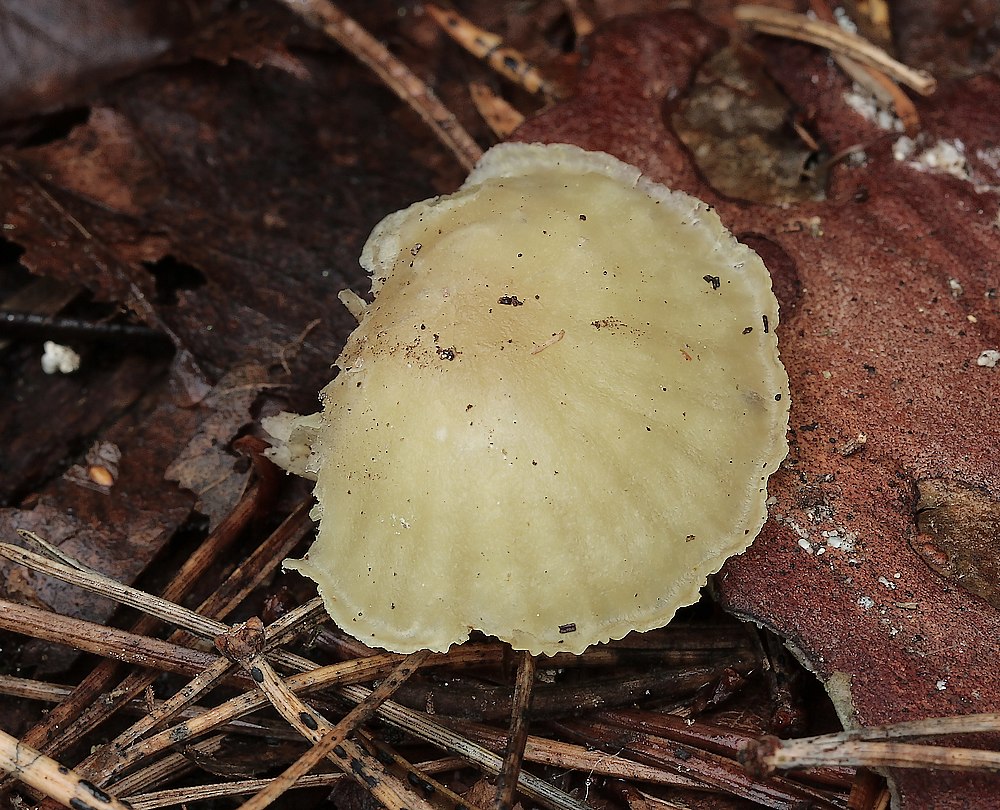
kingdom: Fungi
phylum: Basidiomycota
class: Agaricomycetes
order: Agaricales
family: Hygrophoraceae
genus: Chrysomphalina
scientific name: Chrysomphalina grossula
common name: stød-gyldenblad
